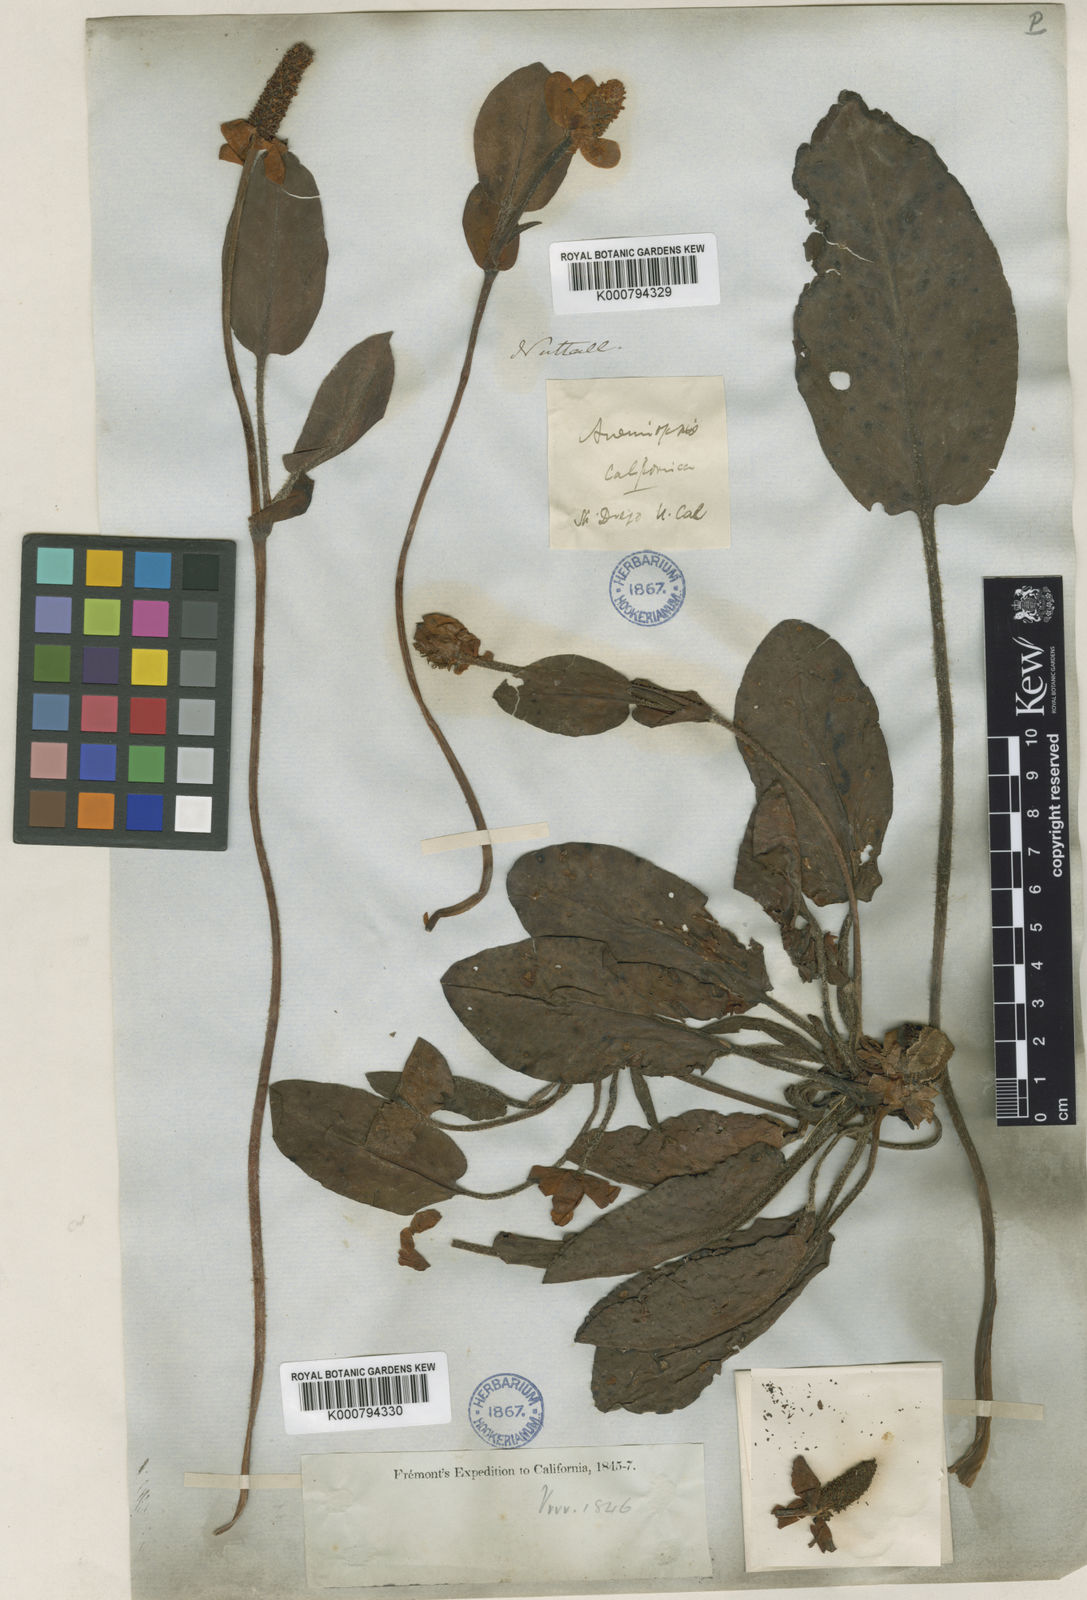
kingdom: Plantae
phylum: Tracheophyta
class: Magnoliopsida
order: Piperales
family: Saururaceae
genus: Anemopsis
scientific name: Anemopsis californica
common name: Apache-beads
